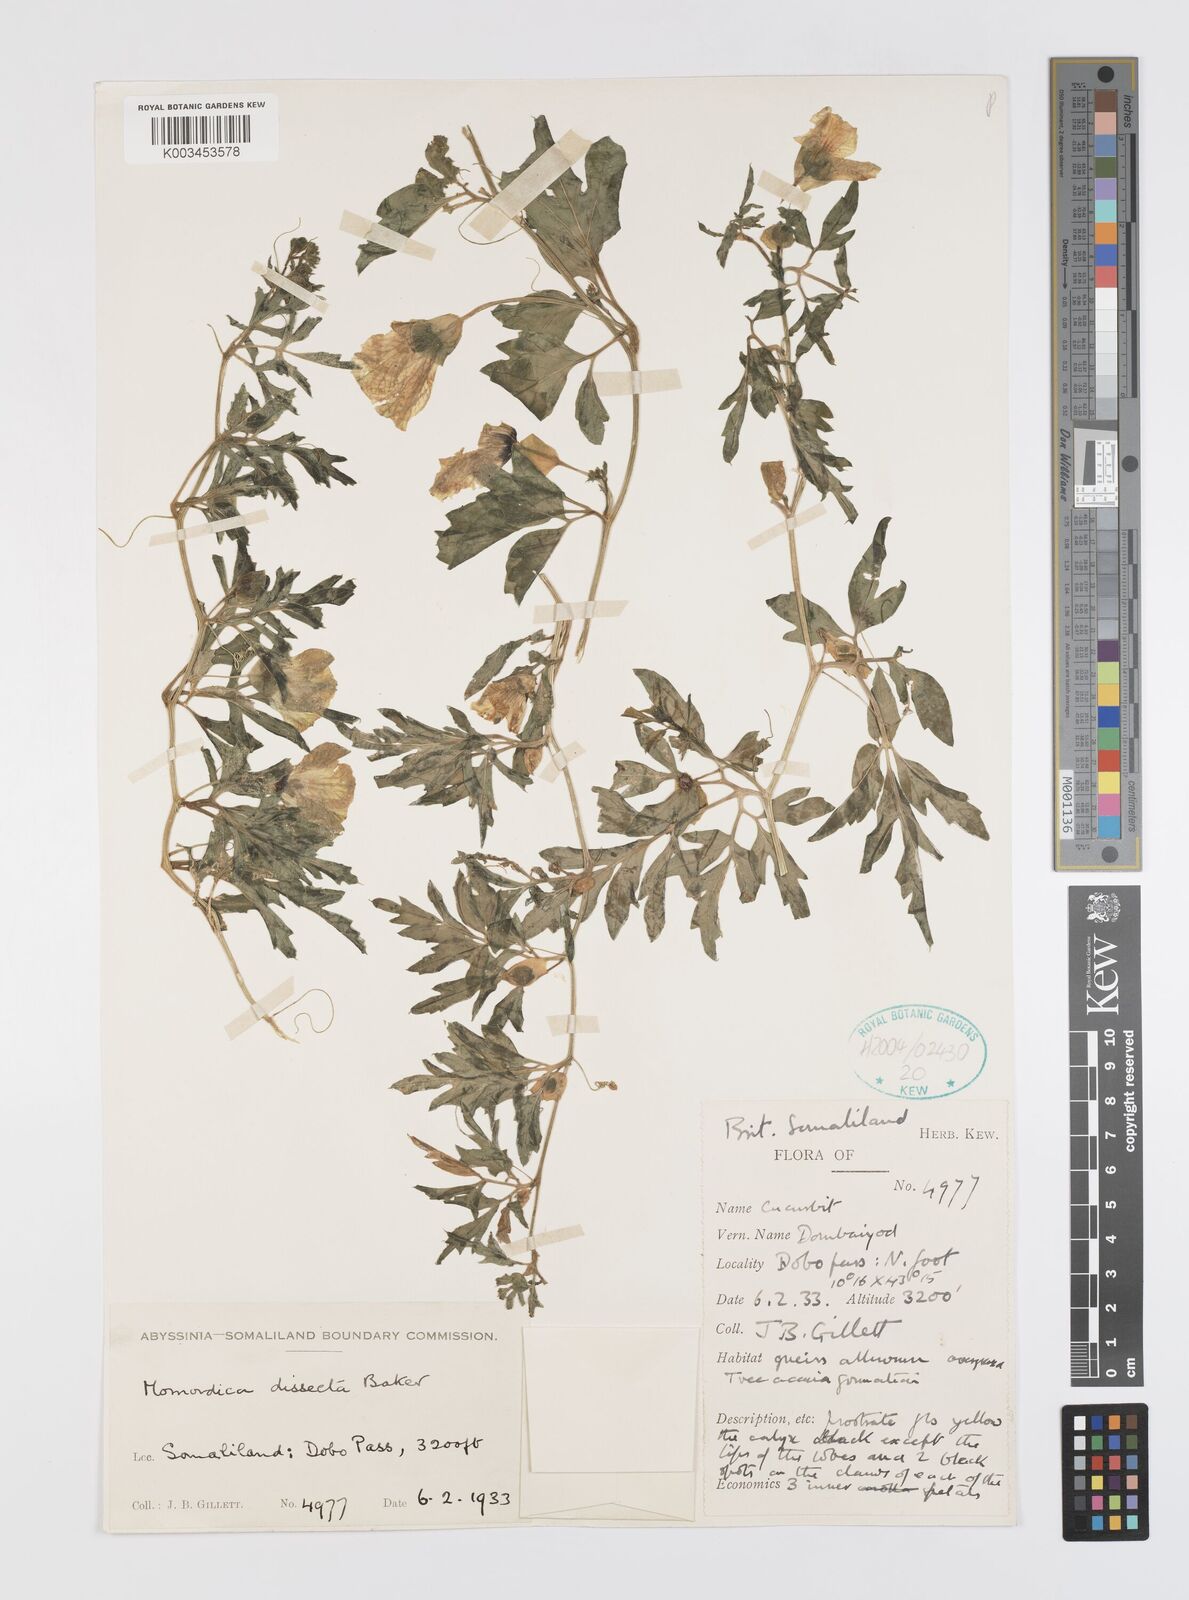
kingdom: Plantae
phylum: Tracheophyta
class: Magnoliopsida
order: Cucurbitales
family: Cucurbitaceae
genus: Momordica
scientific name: Momordica dissecta
